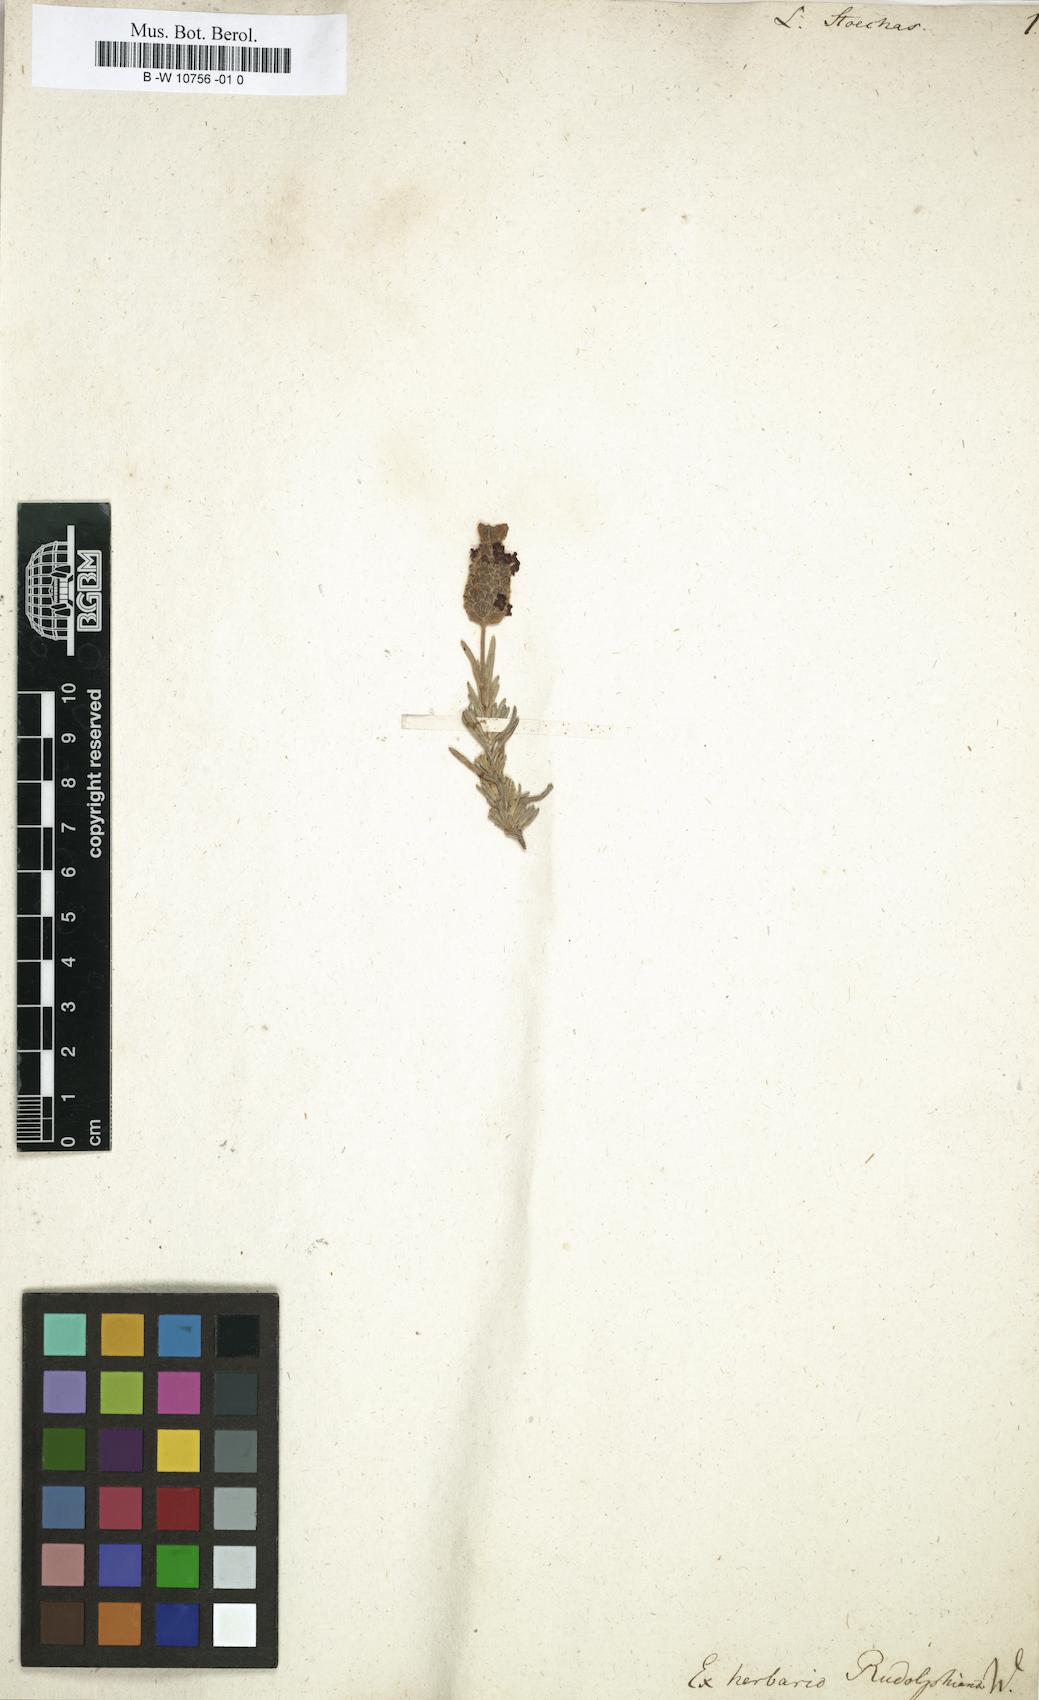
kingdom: Plantae
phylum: Tracheophyta
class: Magnoliopsida
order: Lamiales
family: Lamiaceae
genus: Lavandula
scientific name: Lavandula stoechas
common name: French lavender
